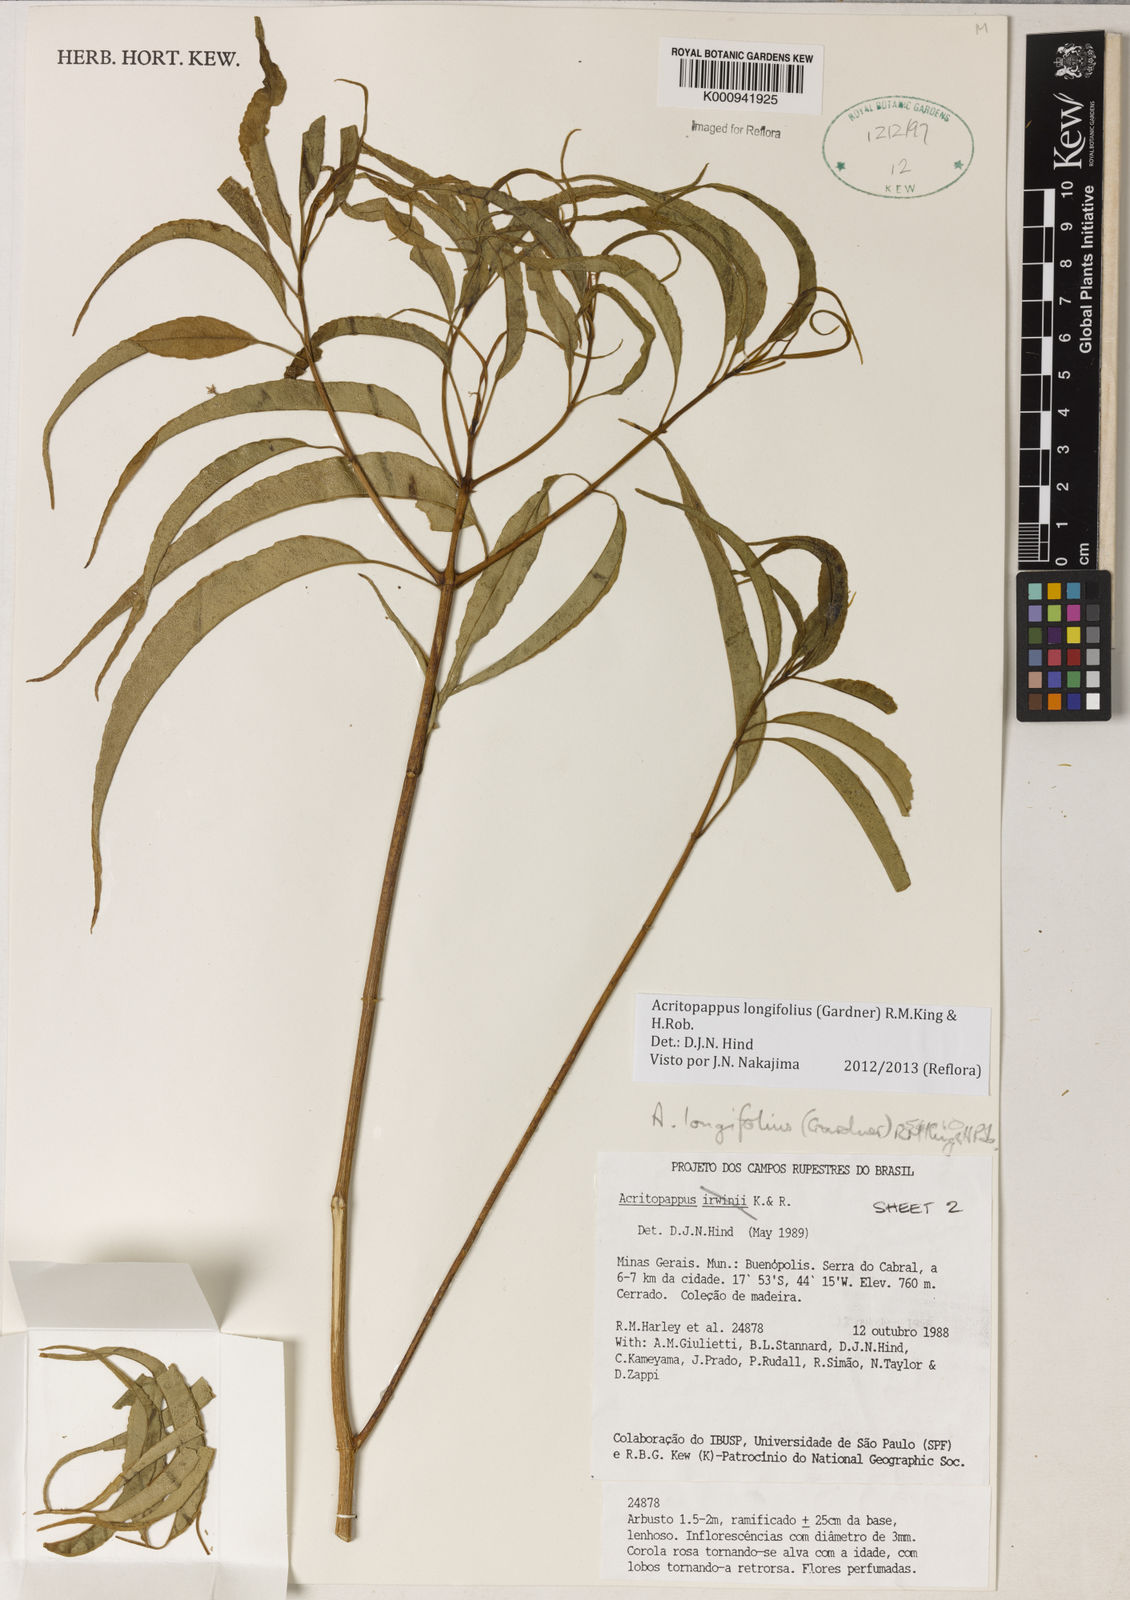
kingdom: Plantae
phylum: Tracheophyta
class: Magnoliopsida
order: Asterales
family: Asteraceae
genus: Acritopappus
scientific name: Acritopappus longifolius
